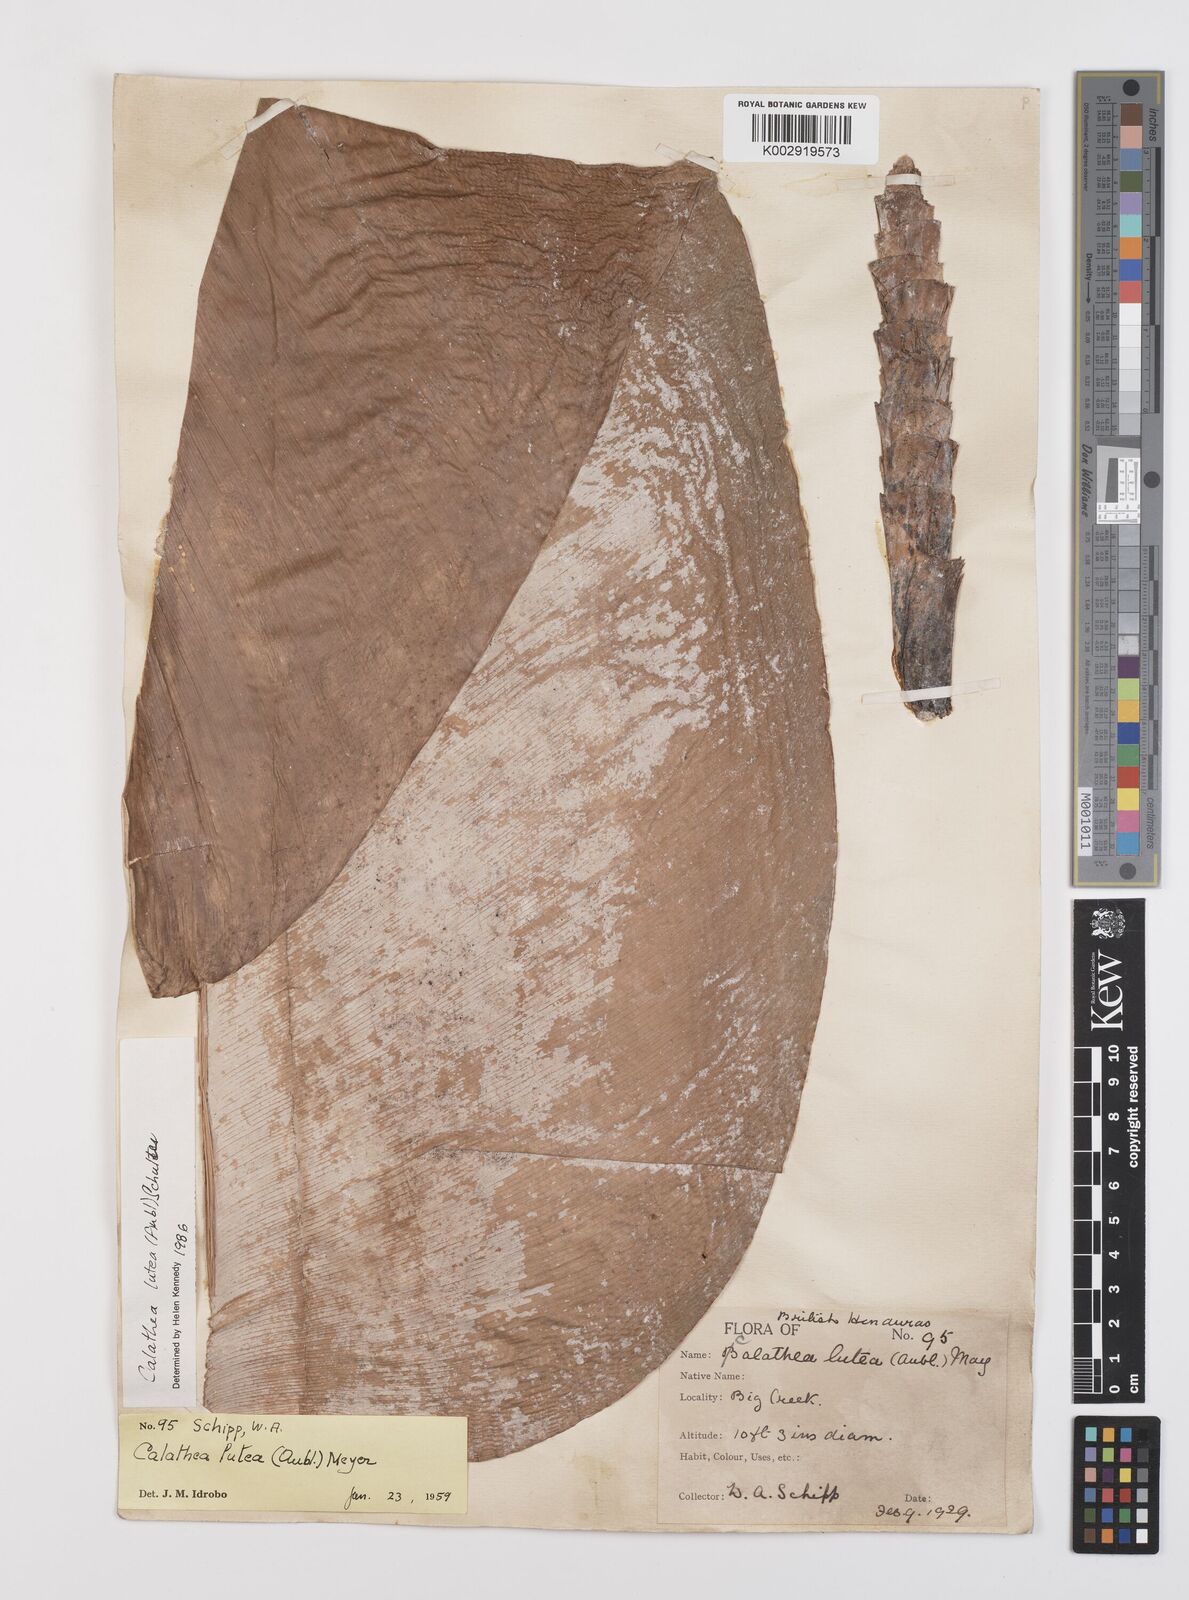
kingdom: Plantae
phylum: Tracheophyta
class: Liliopsida
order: Zingiberales
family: Marantaceae
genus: Calathea
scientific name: Calathea lutea
